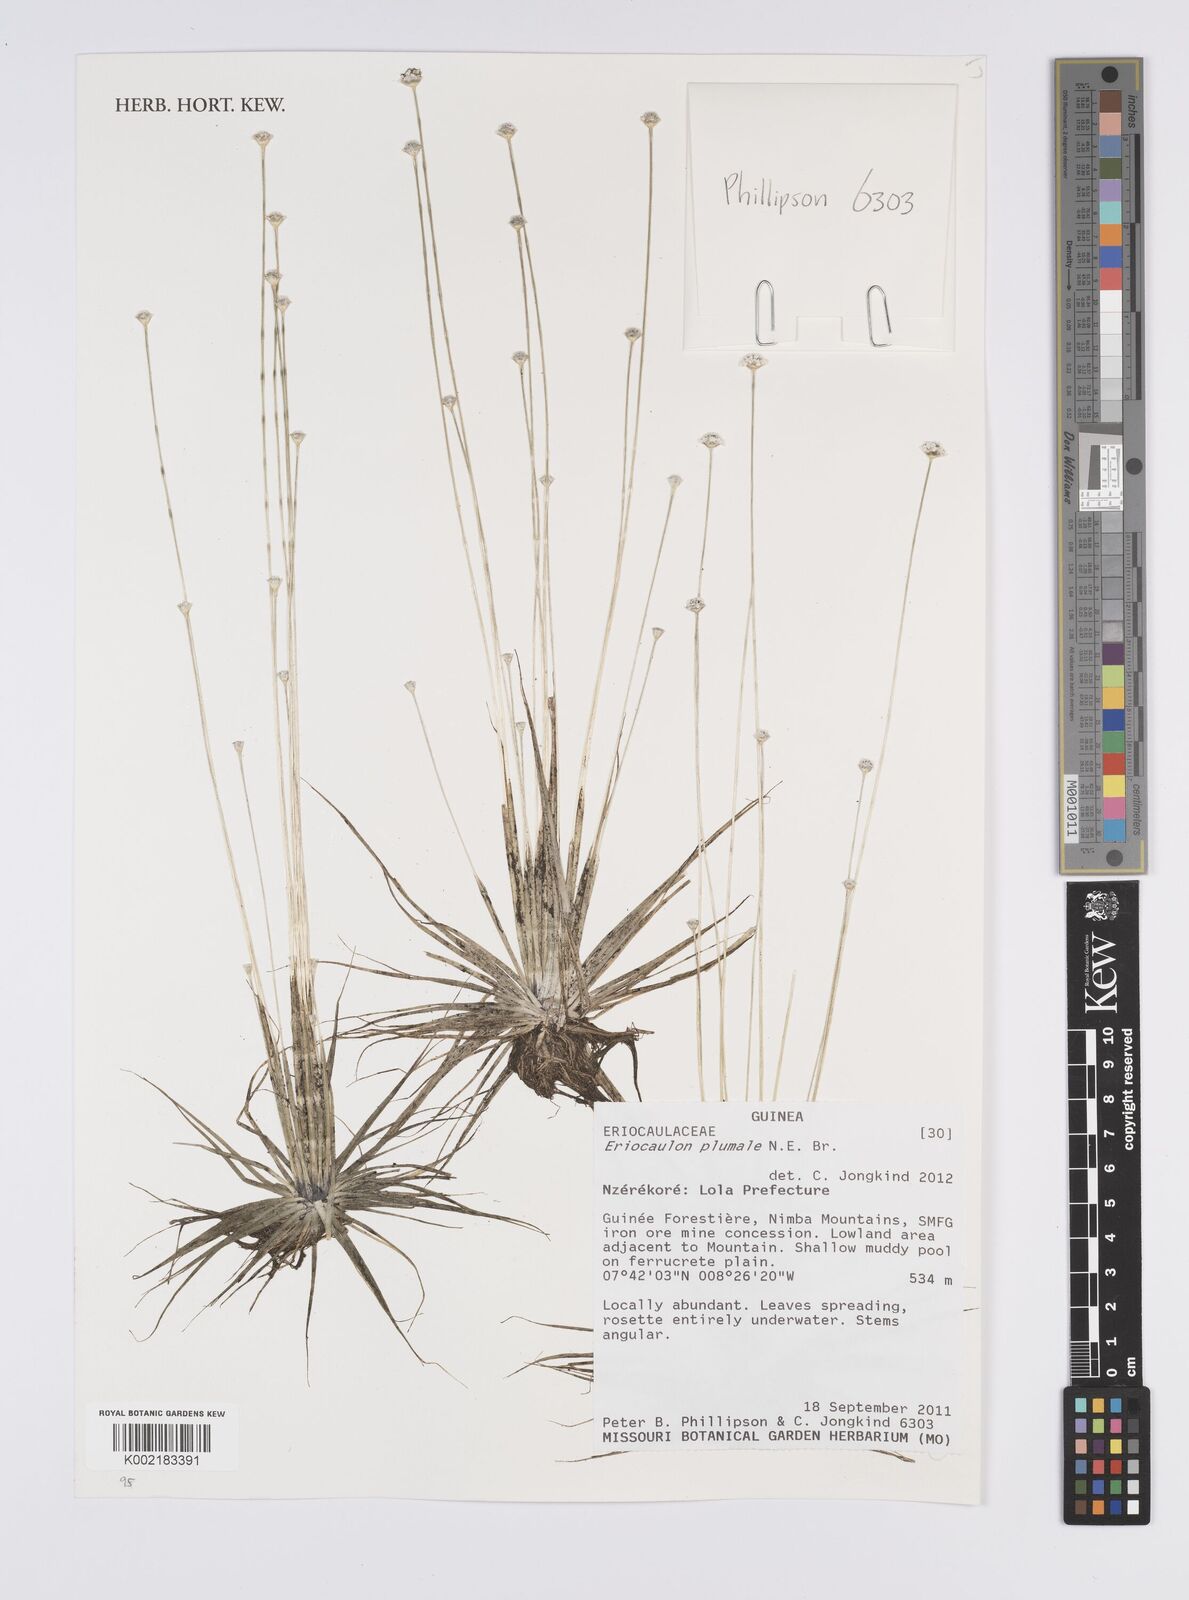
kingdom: Plantae
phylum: Tracheophyta
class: Liliopsida
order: Poales
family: Eriocaulaceae
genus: Eriocaulon
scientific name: Eriocaulon plumale
